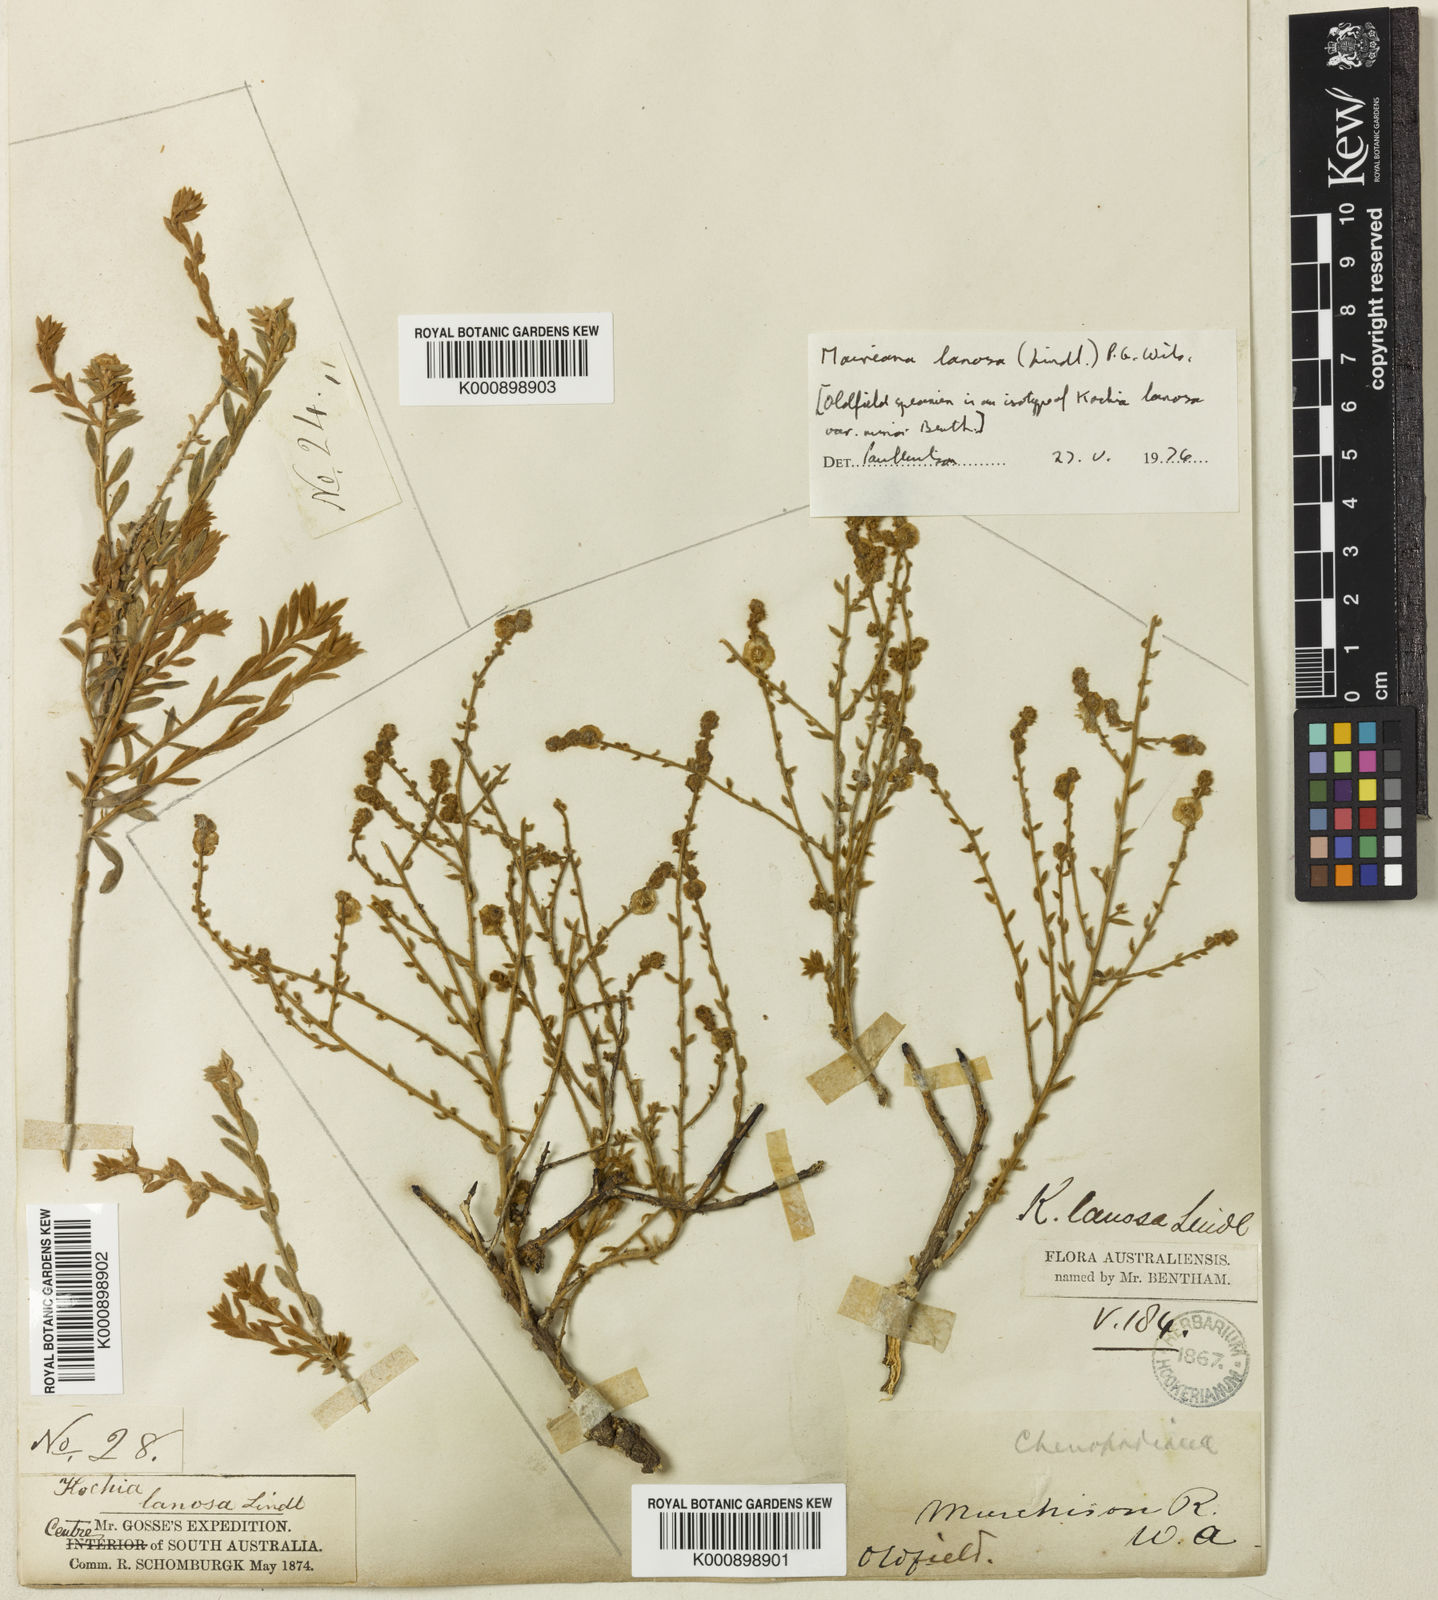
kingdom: Plantae
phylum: Tracheophyta
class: Magnoliopsida
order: Caryophyllales
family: Amaranthaceae
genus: Maireana
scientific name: Maireana lanosa
